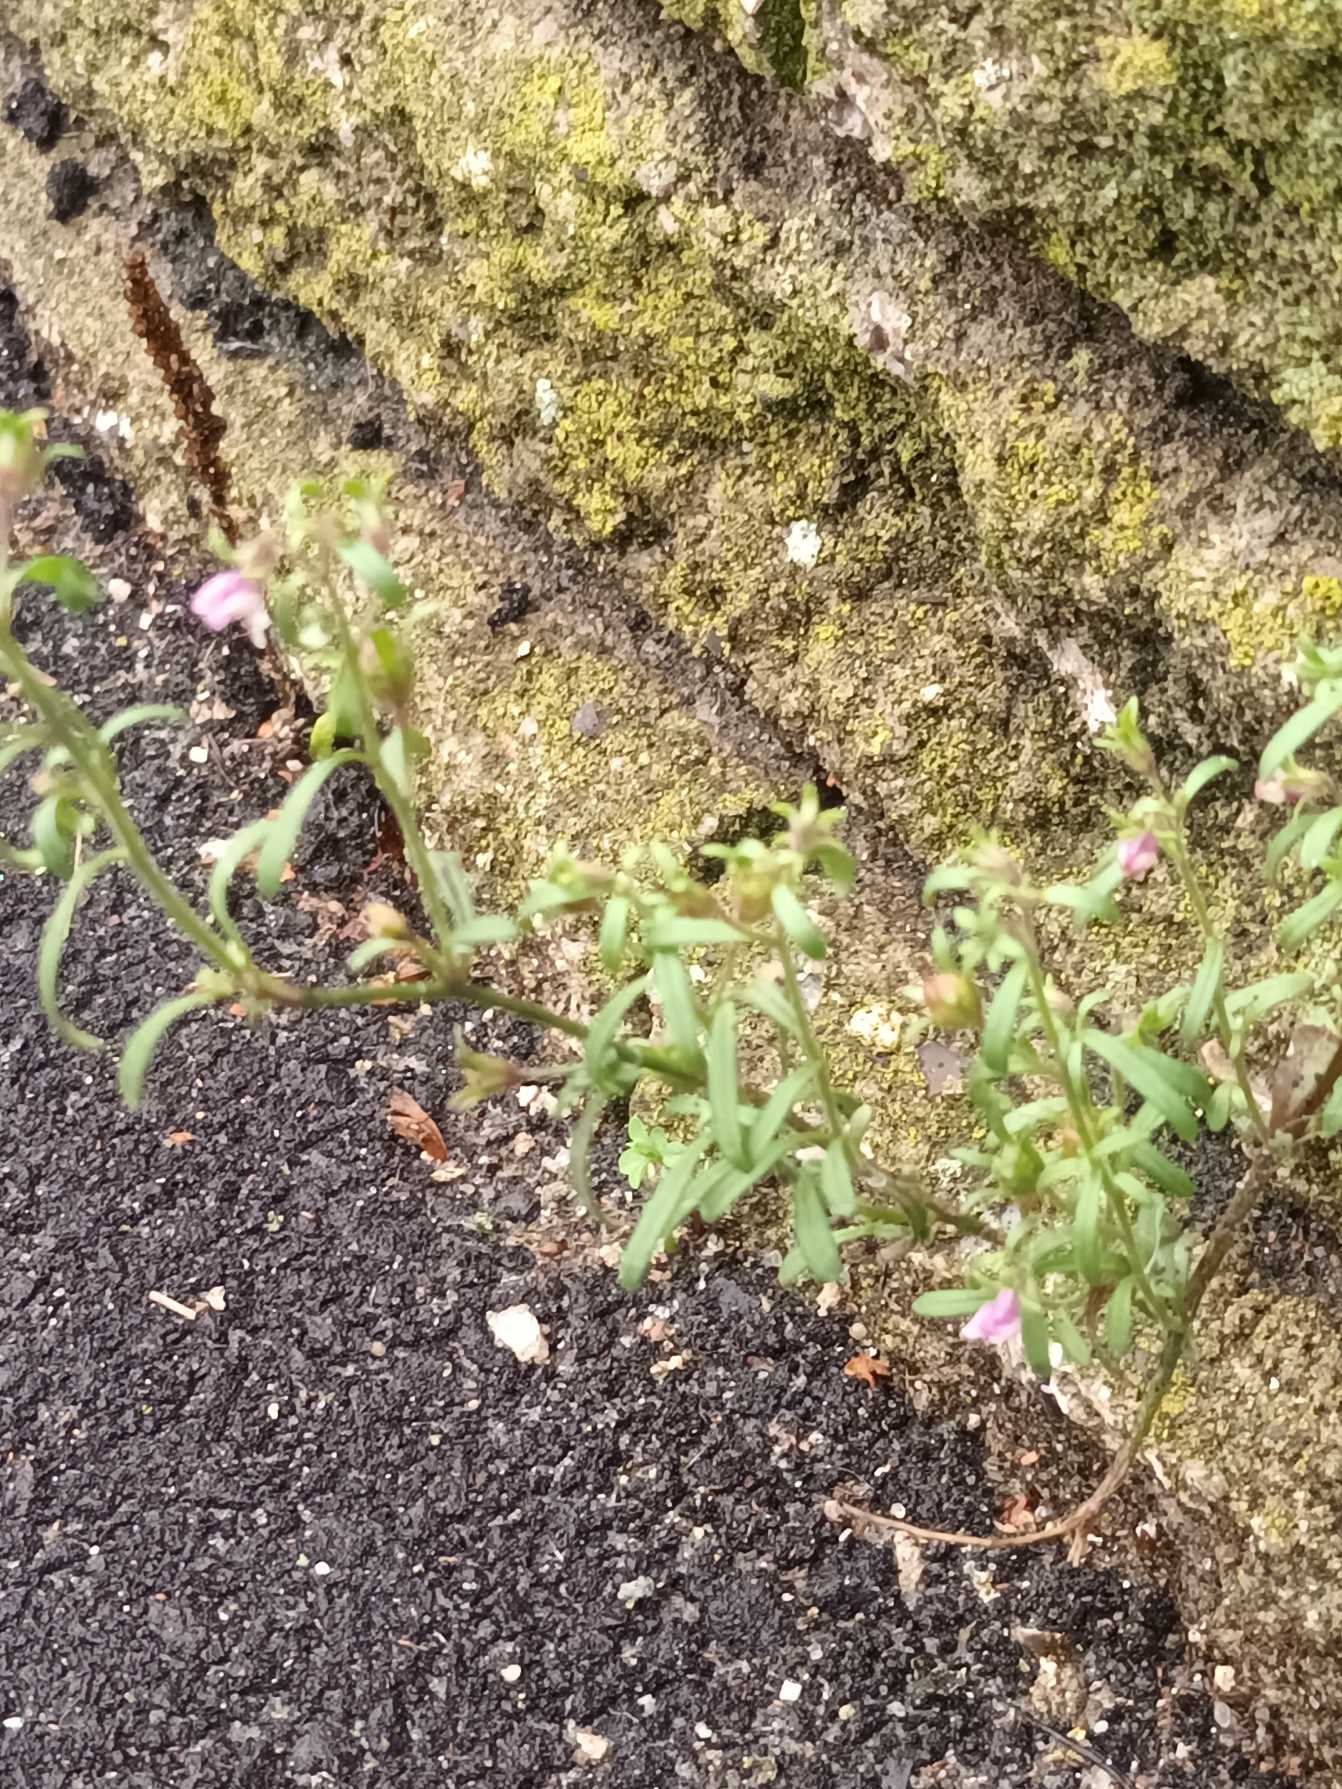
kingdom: Plantae
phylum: Tracheophyta
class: Magnoliopsida
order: Lamiales
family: Plantaginaceae
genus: Chaenorhinum
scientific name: Chaenorhinum minus
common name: Liden torskemund
